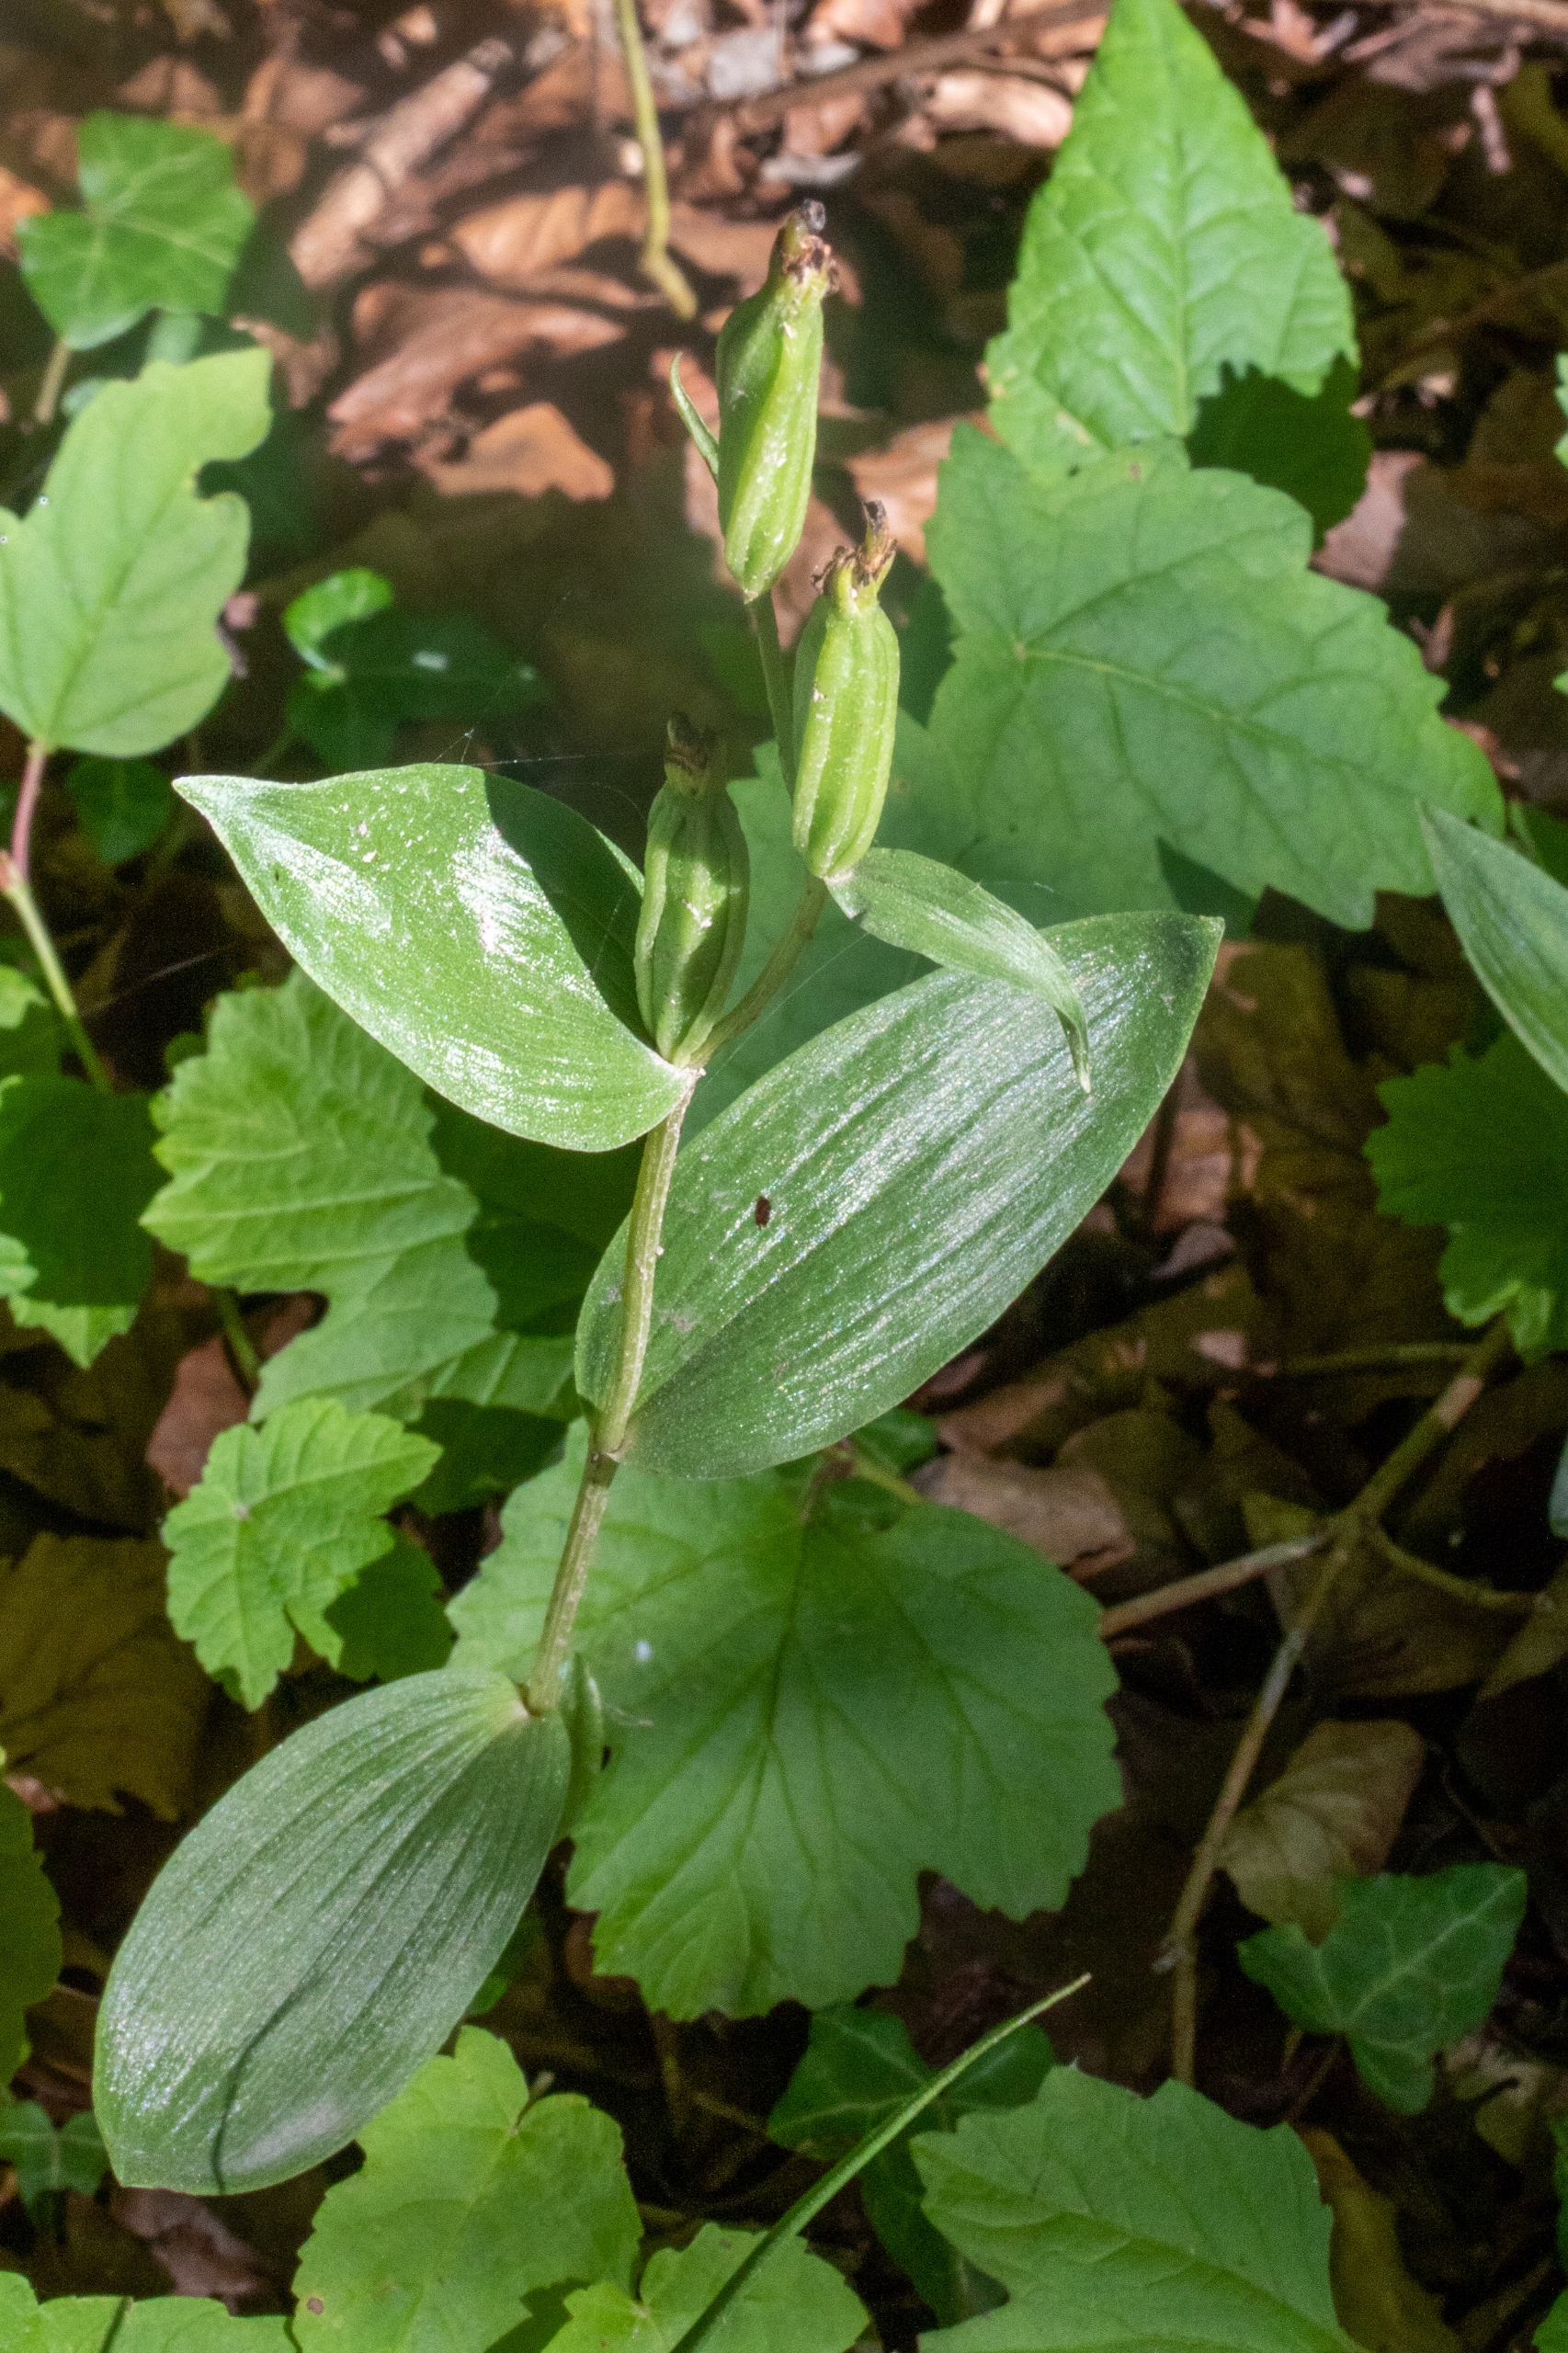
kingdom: Plantae
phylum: Tracheophyta
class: Liliopsida
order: Asparagales
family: Orchidaceae
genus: Cephalanthera
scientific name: Cephalanthera damasonium
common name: Hvidgul skovlilje
